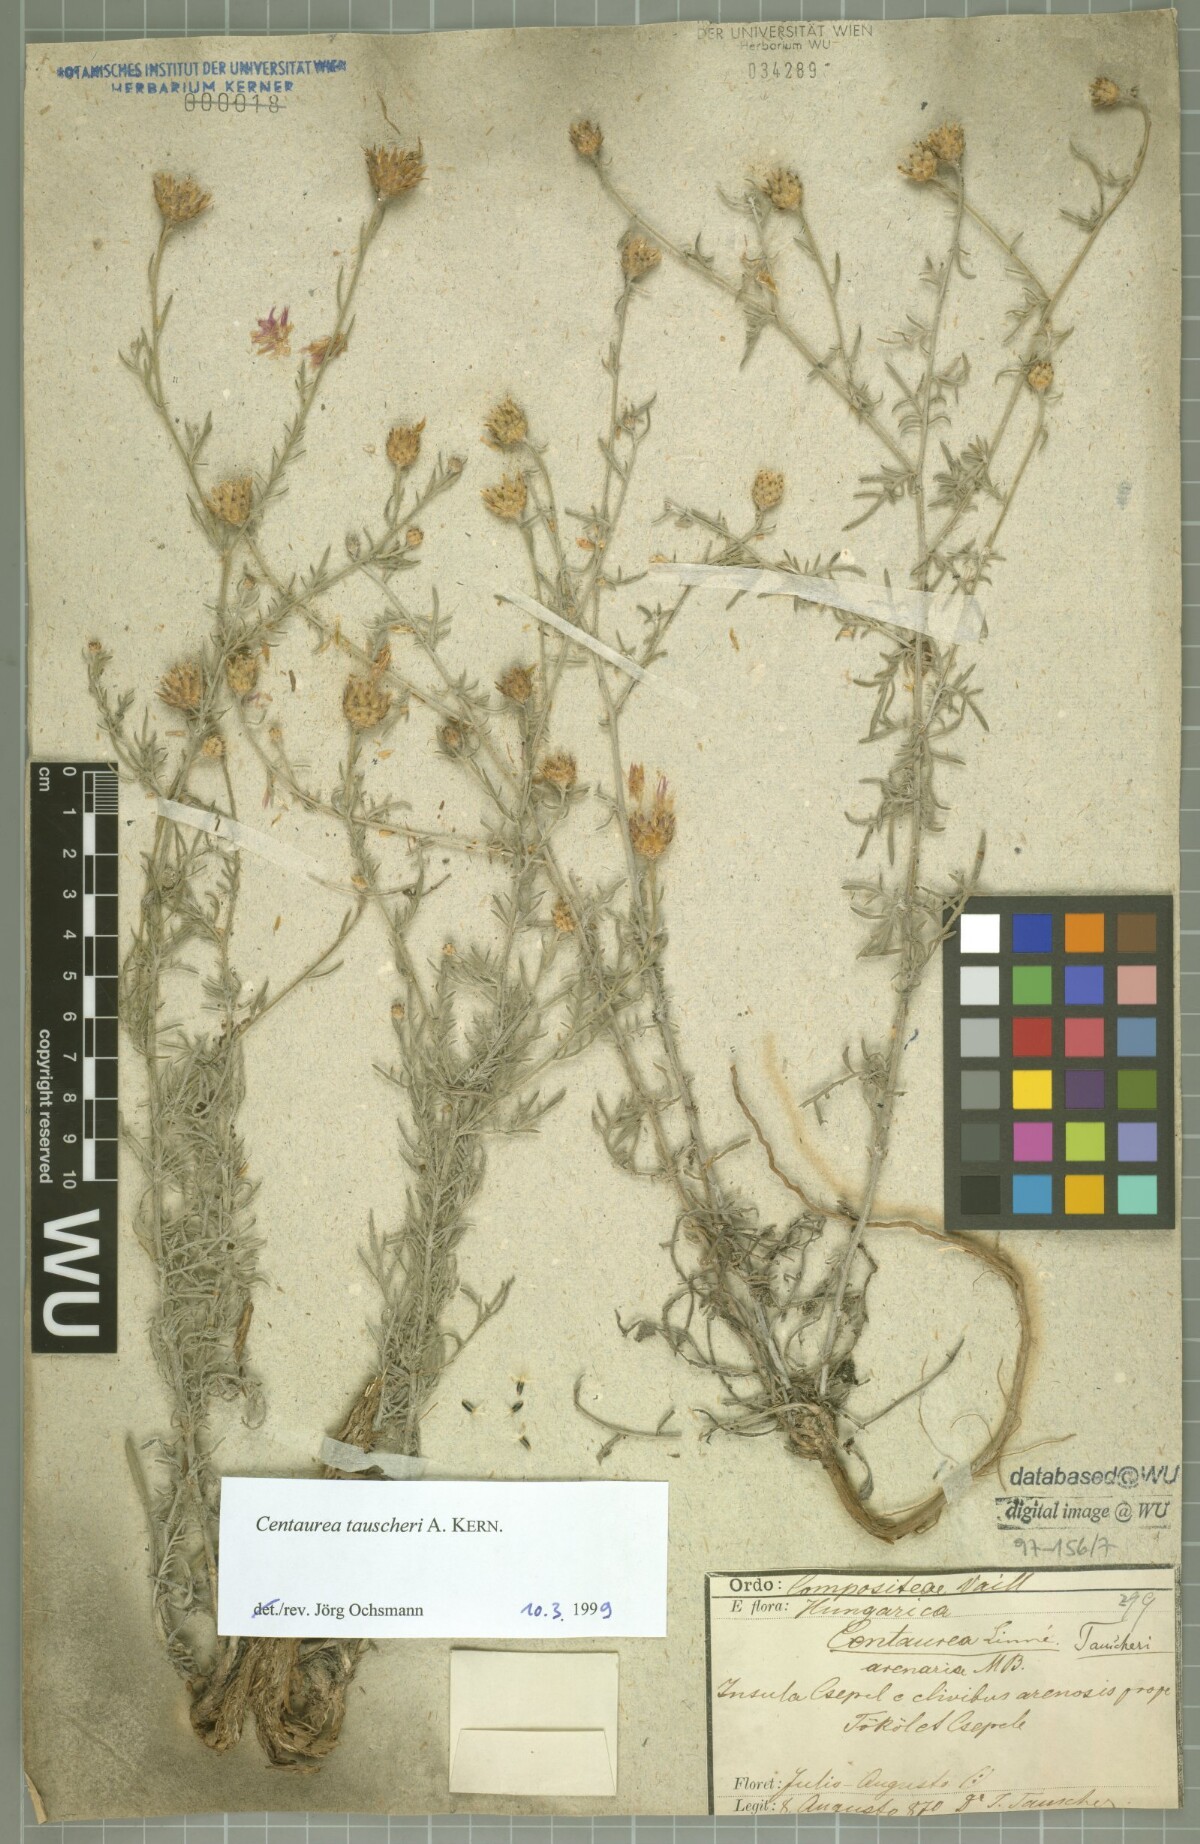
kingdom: Plantae
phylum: Tracheophyta
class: Magnoliopsida
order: Asterales
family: Asteraceae
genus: Centaurea
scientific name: Centaurea tauscheri
